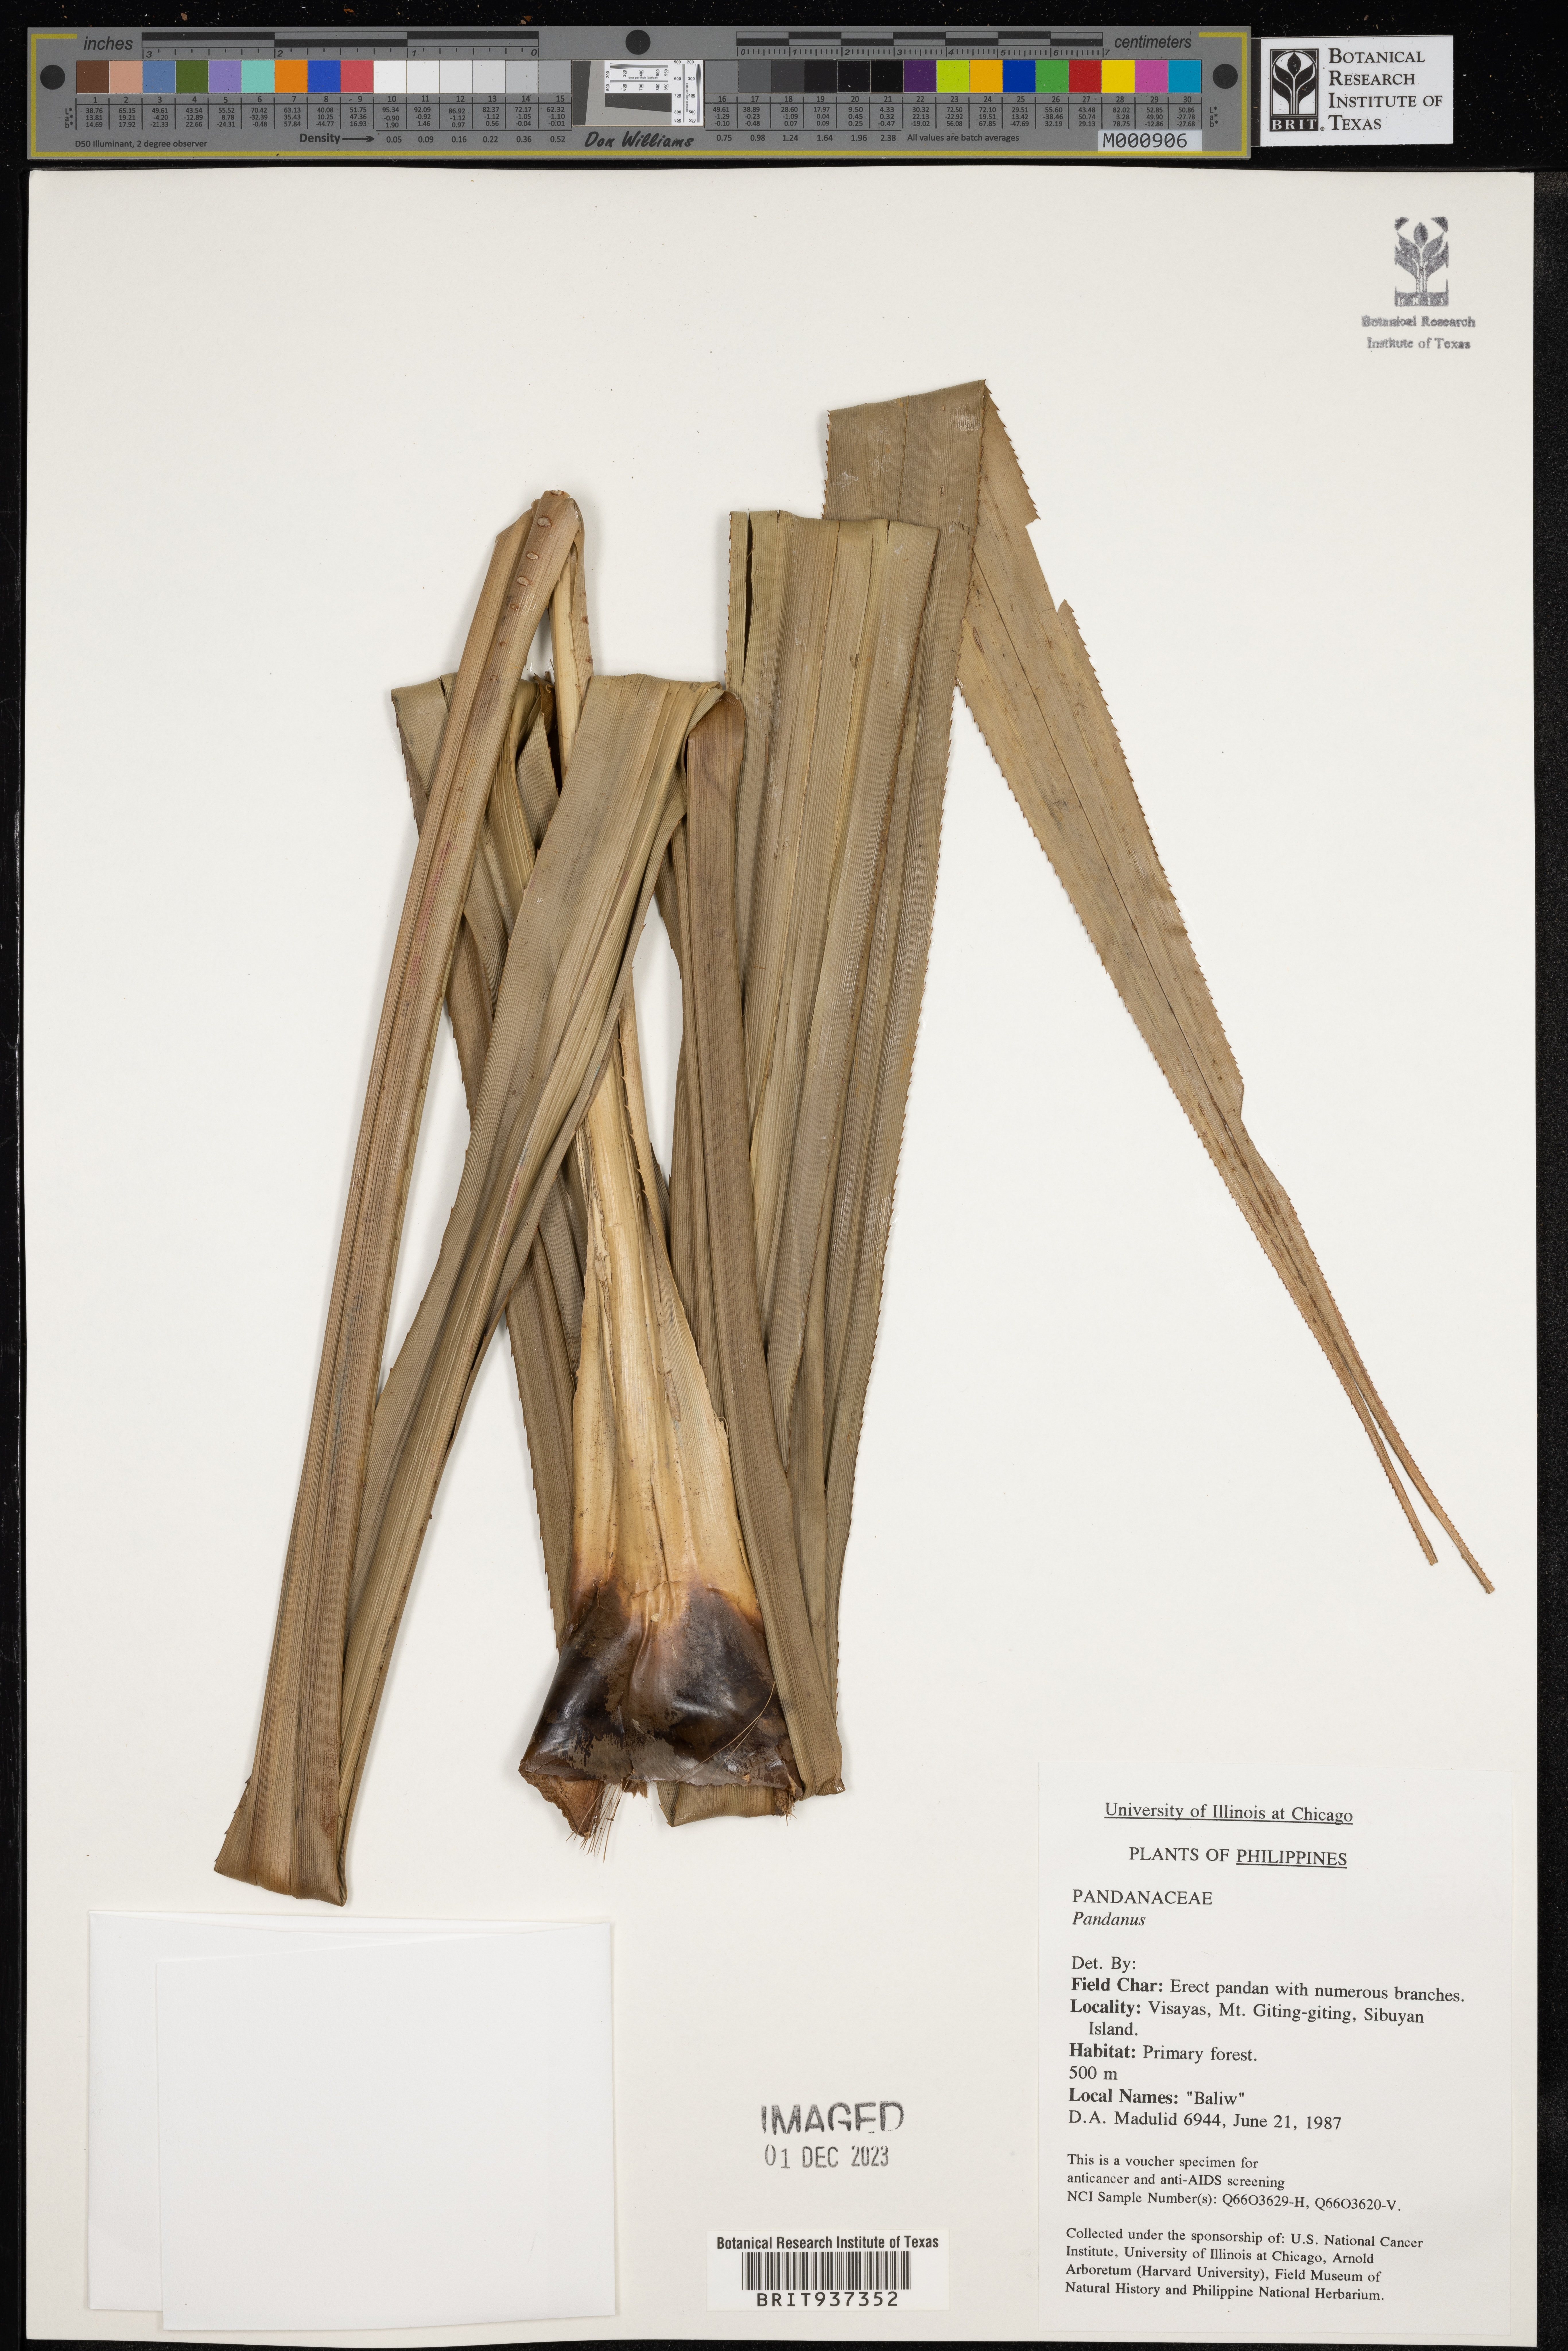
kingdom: Plantae
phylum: Tracheophyta
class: Liliopsida
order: Pandanales
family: Pandanaceae
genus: Pandanus
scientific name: Pandanus
